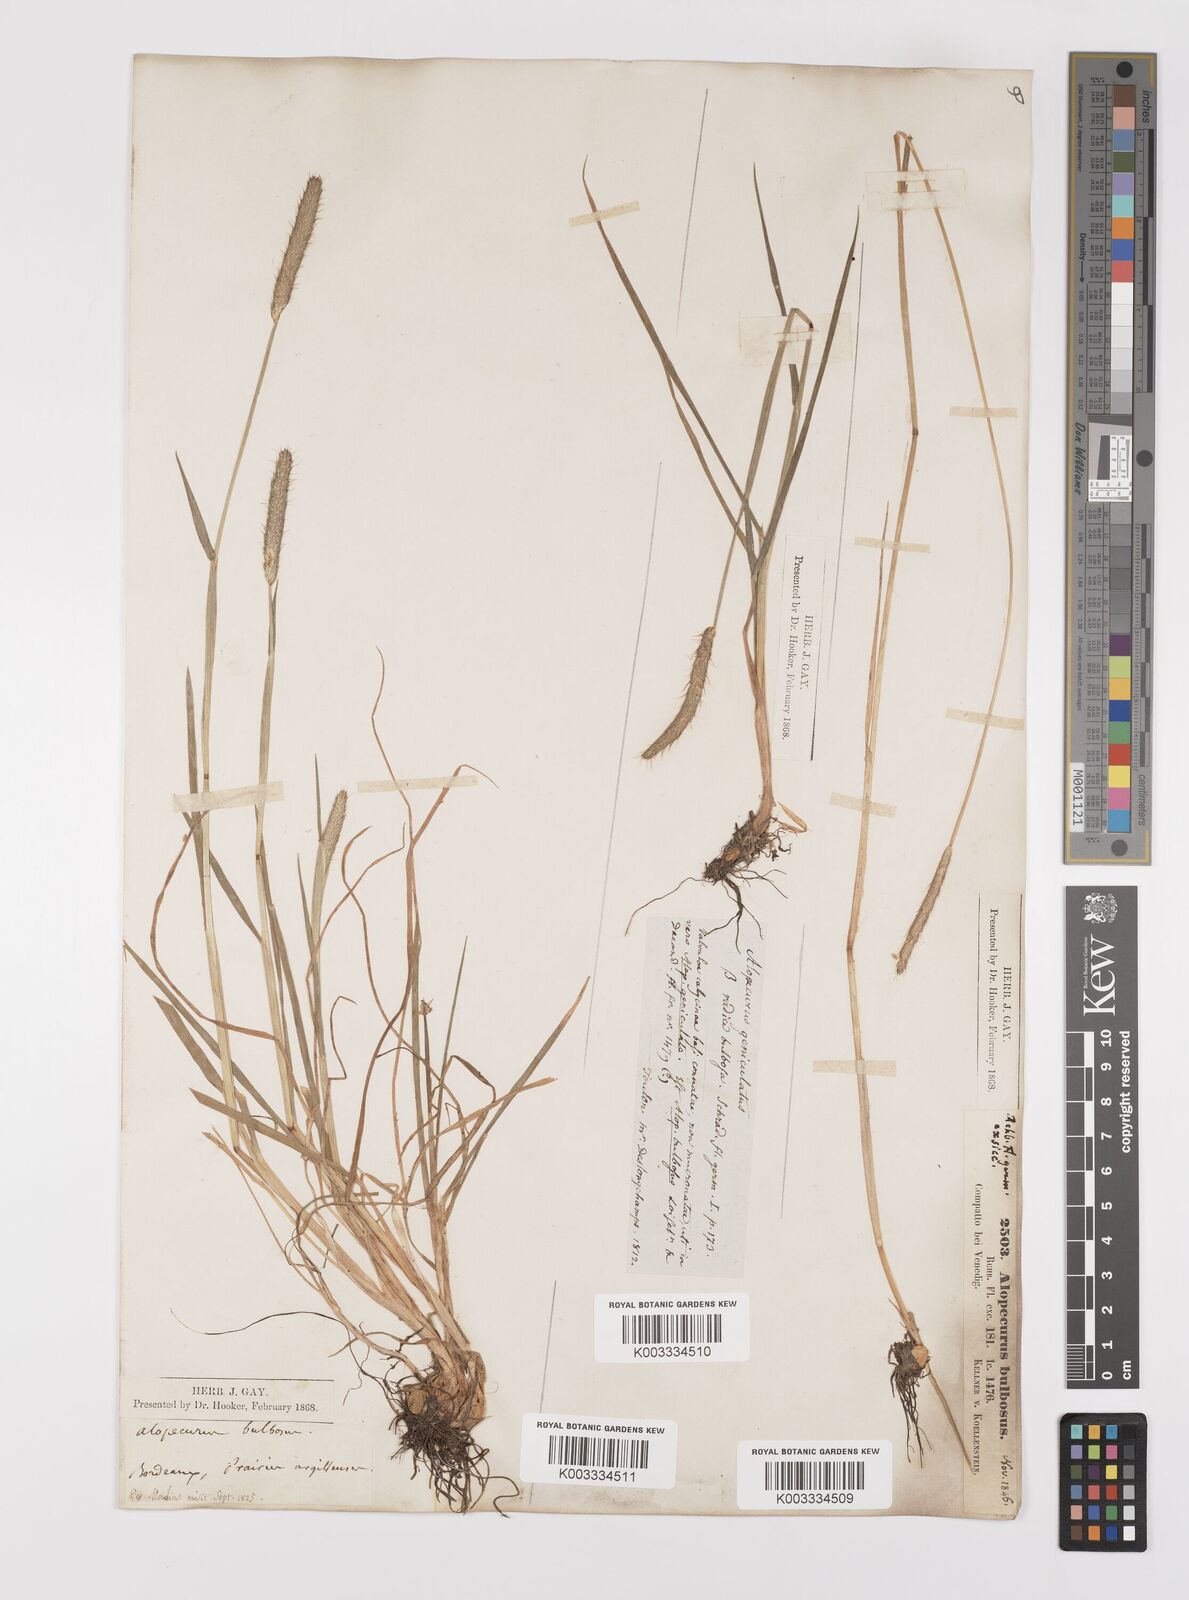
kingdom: Plantae
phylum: Tracheophyta
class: Liliopsida
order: Poales
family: Poaceae
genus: Alopecurus
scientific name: Alopecurus bulbosus
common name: Bulbous foxtail
